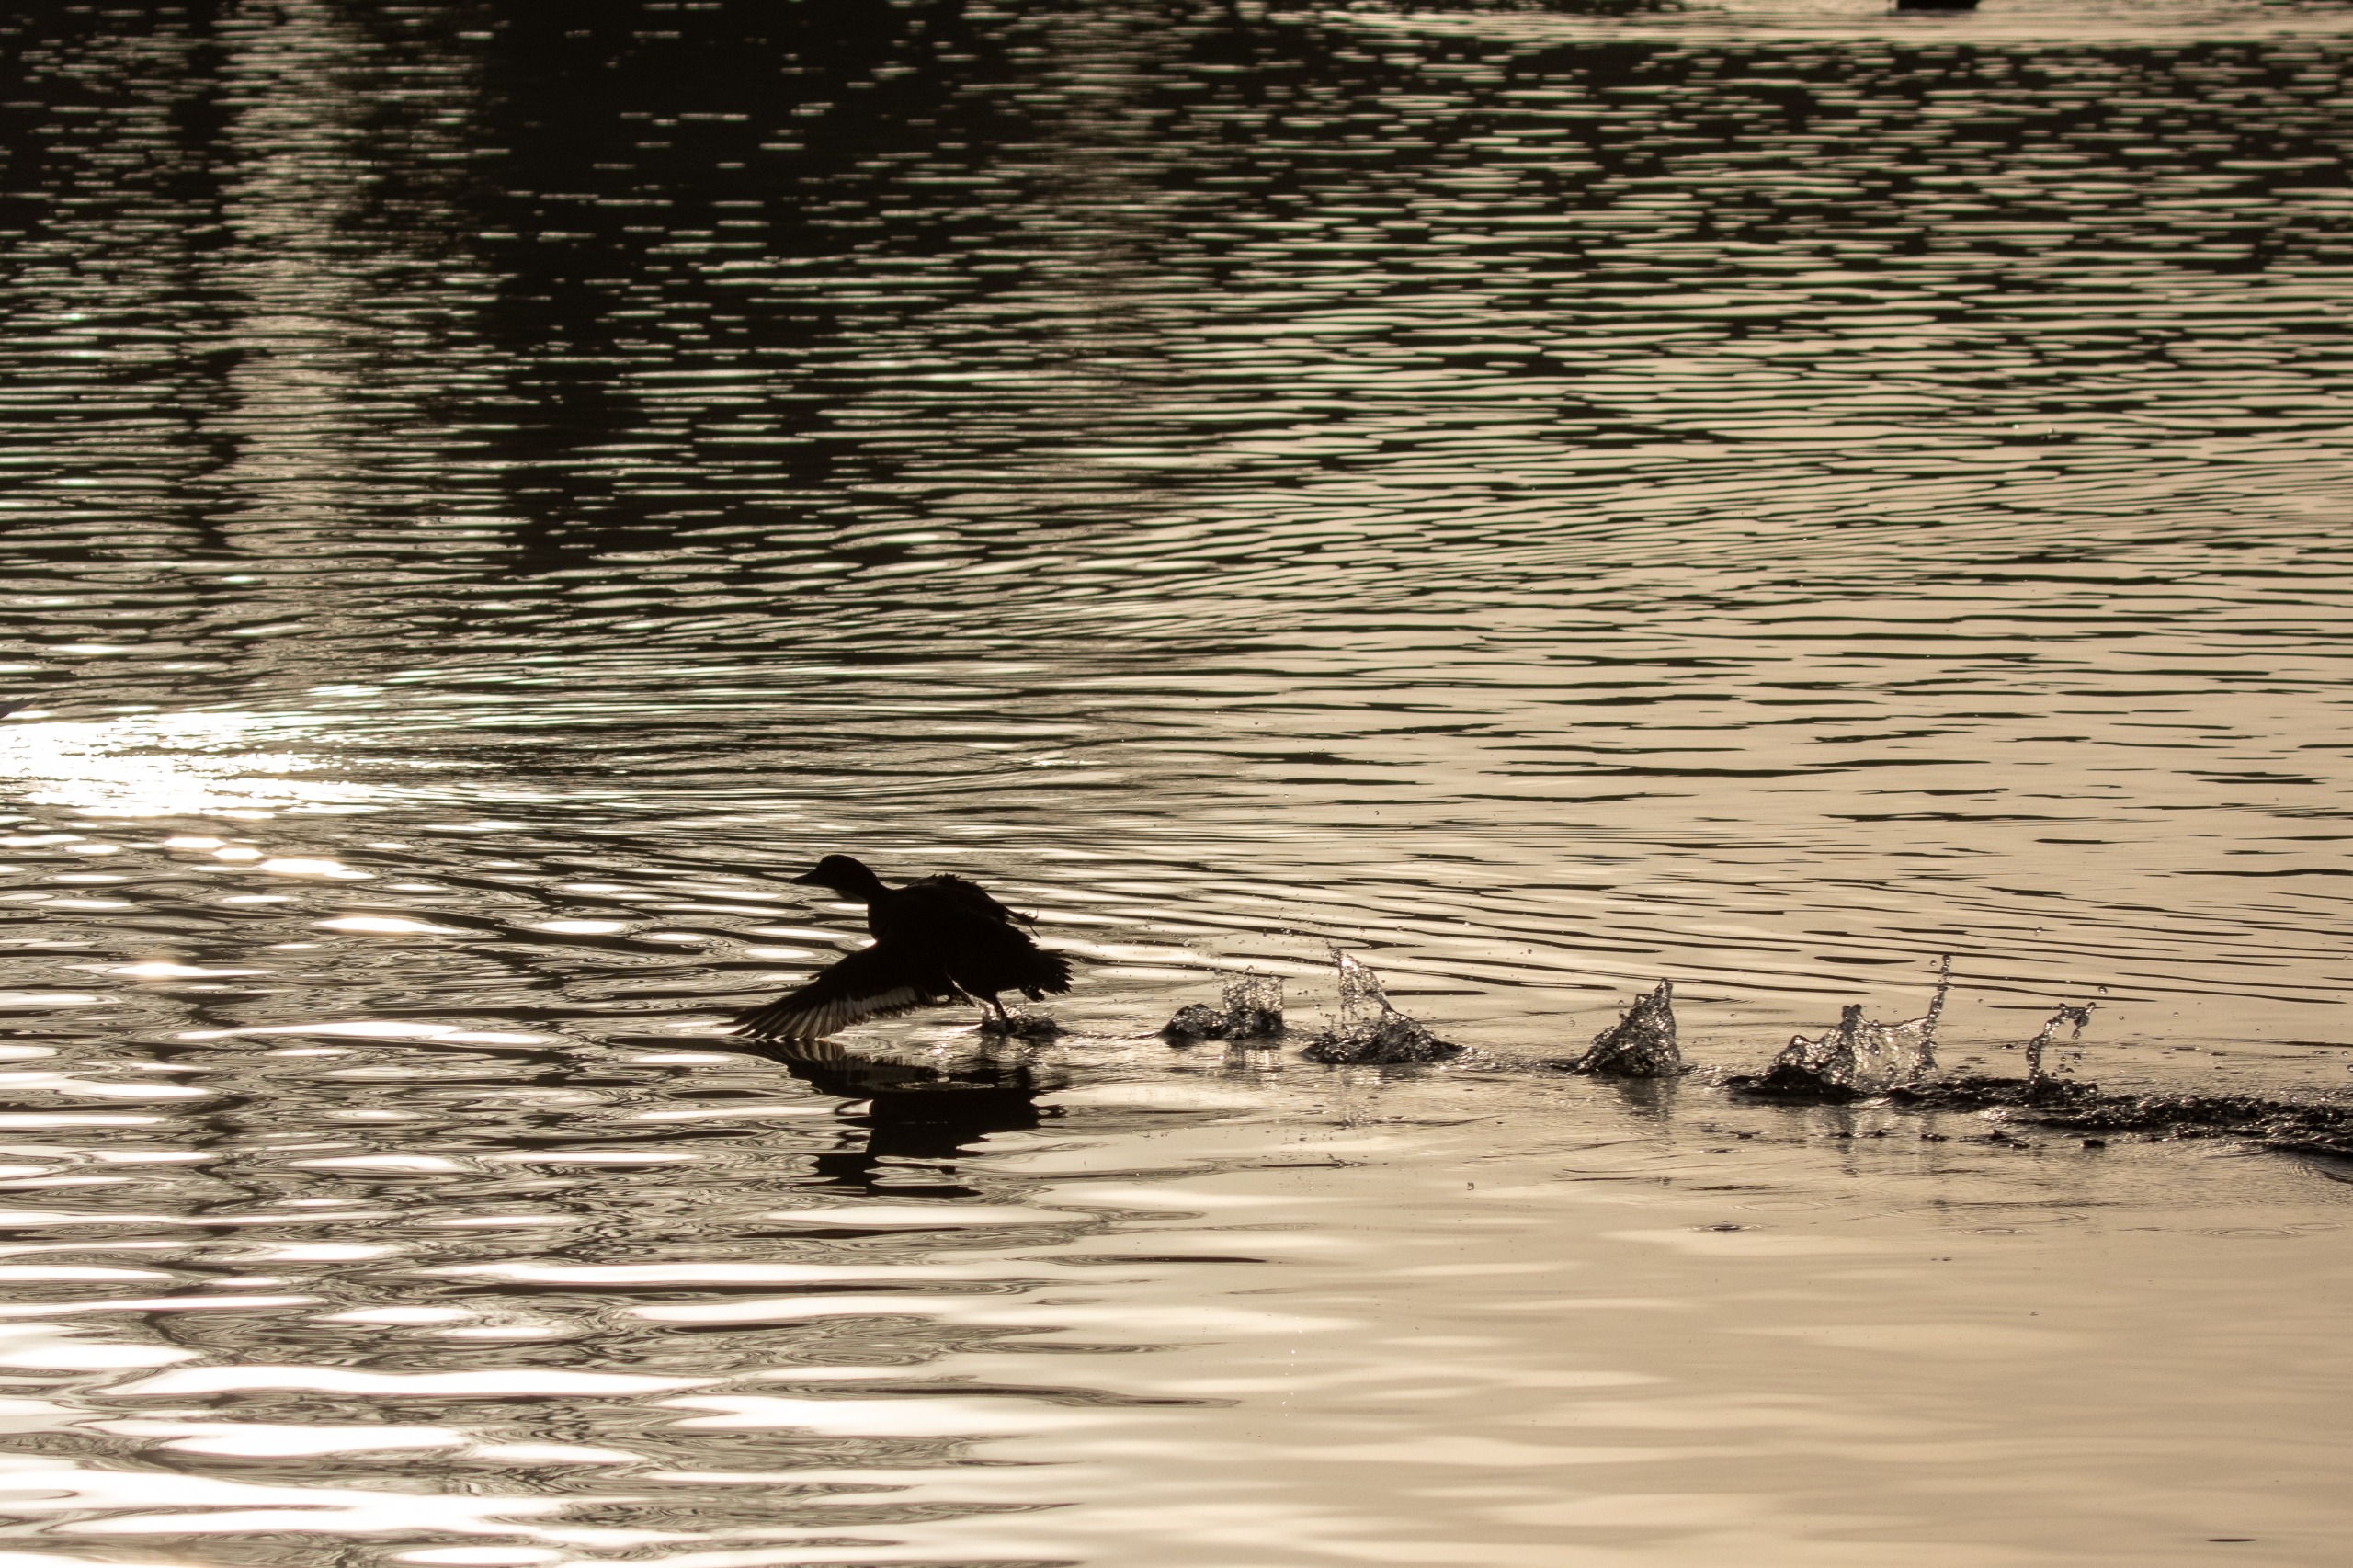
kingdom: Animalia
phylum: Chordata
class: Aves
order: Anseriformes
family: Anatidae
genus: Anas
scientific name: Anas platyrhynchos
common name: Gråand
